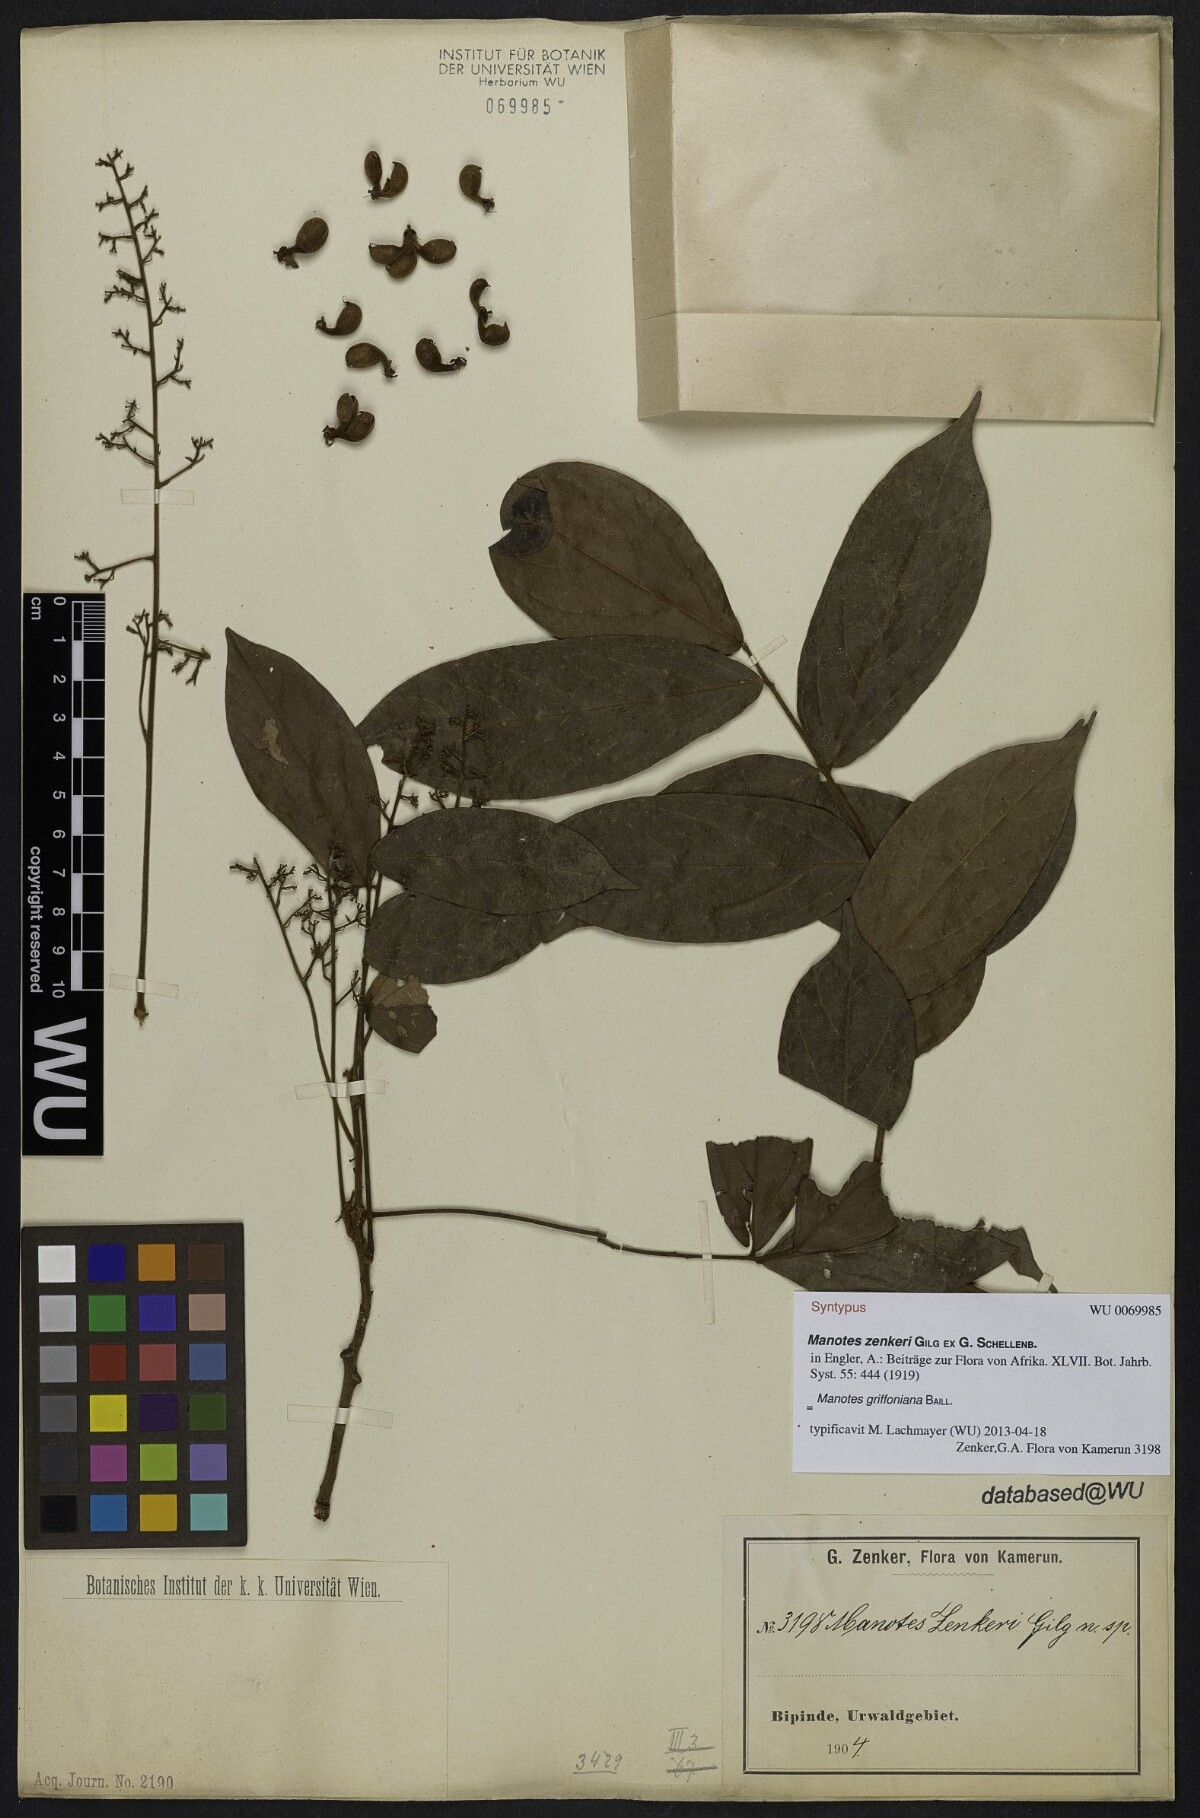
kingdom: Plantae
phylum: Tracheophyta
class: Magnoliopsida
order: Oxalidales
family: Connaraceae
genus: Manotes
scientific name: Manotes griffoniana
